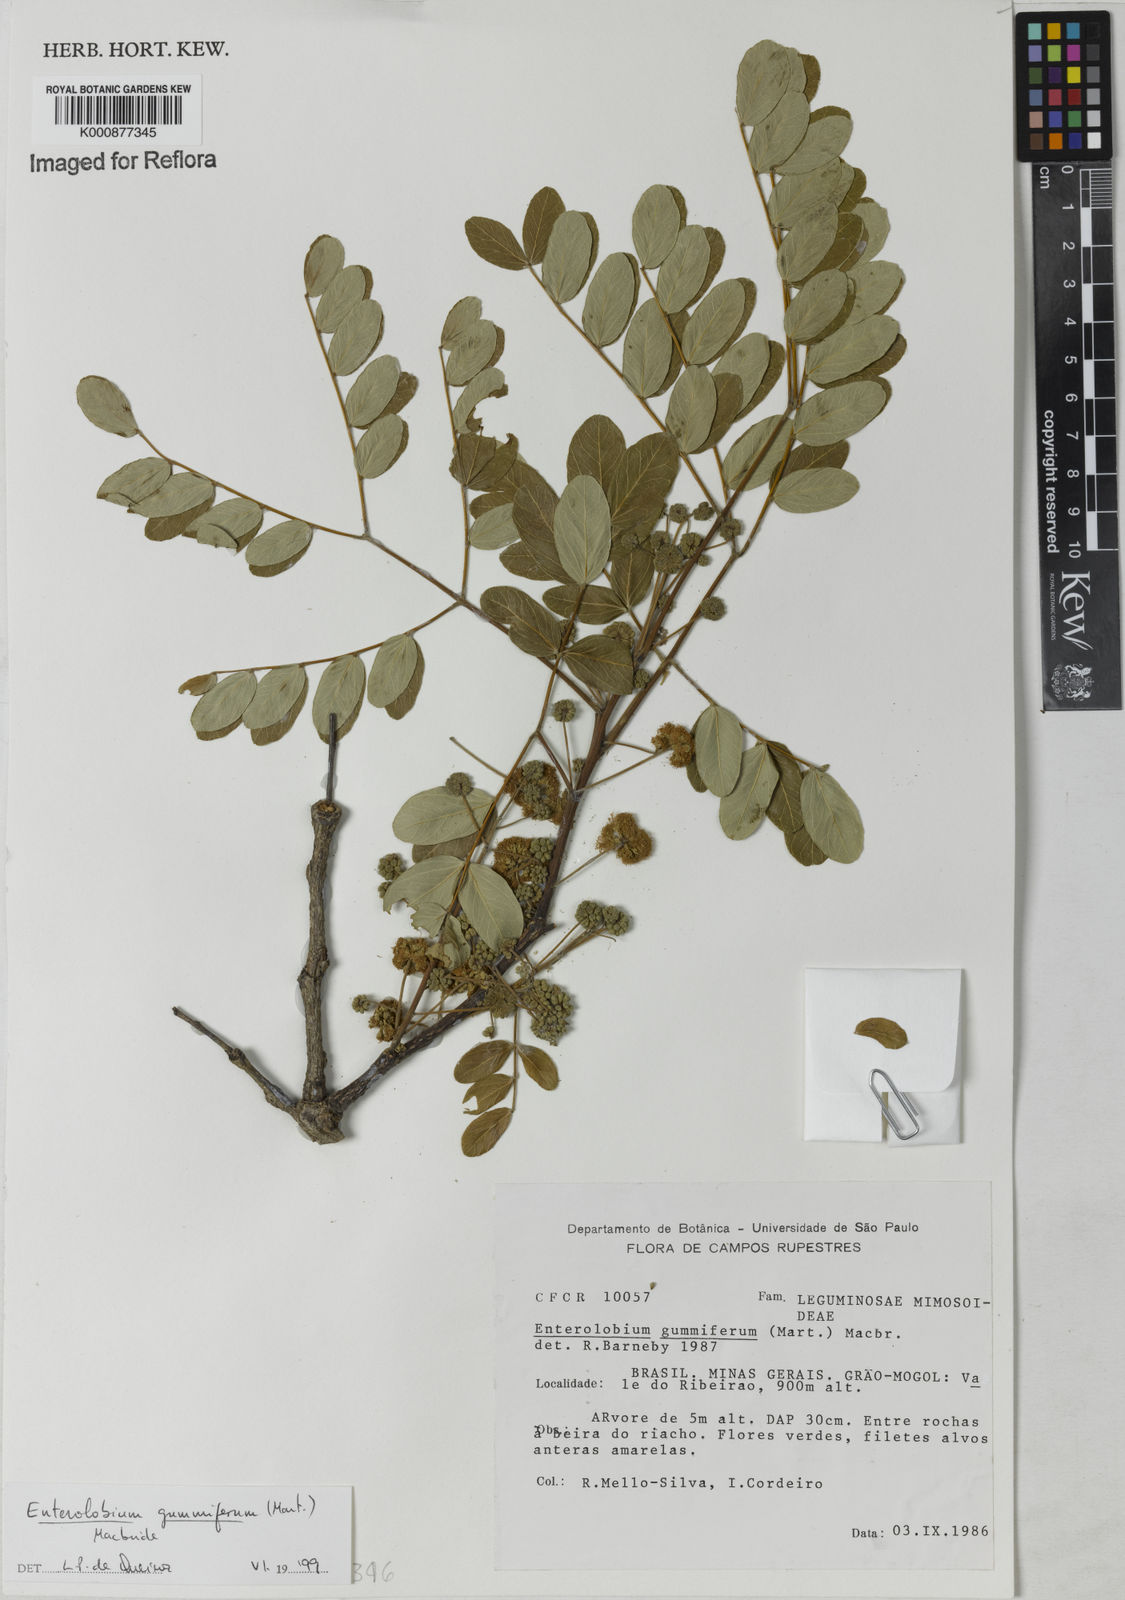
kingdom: Plantae
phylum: Tracheophyta
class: Magnoliopsida
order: Fabales
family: Fabaceae
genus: Enterolobium
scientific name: Enterolobium gummiferum
